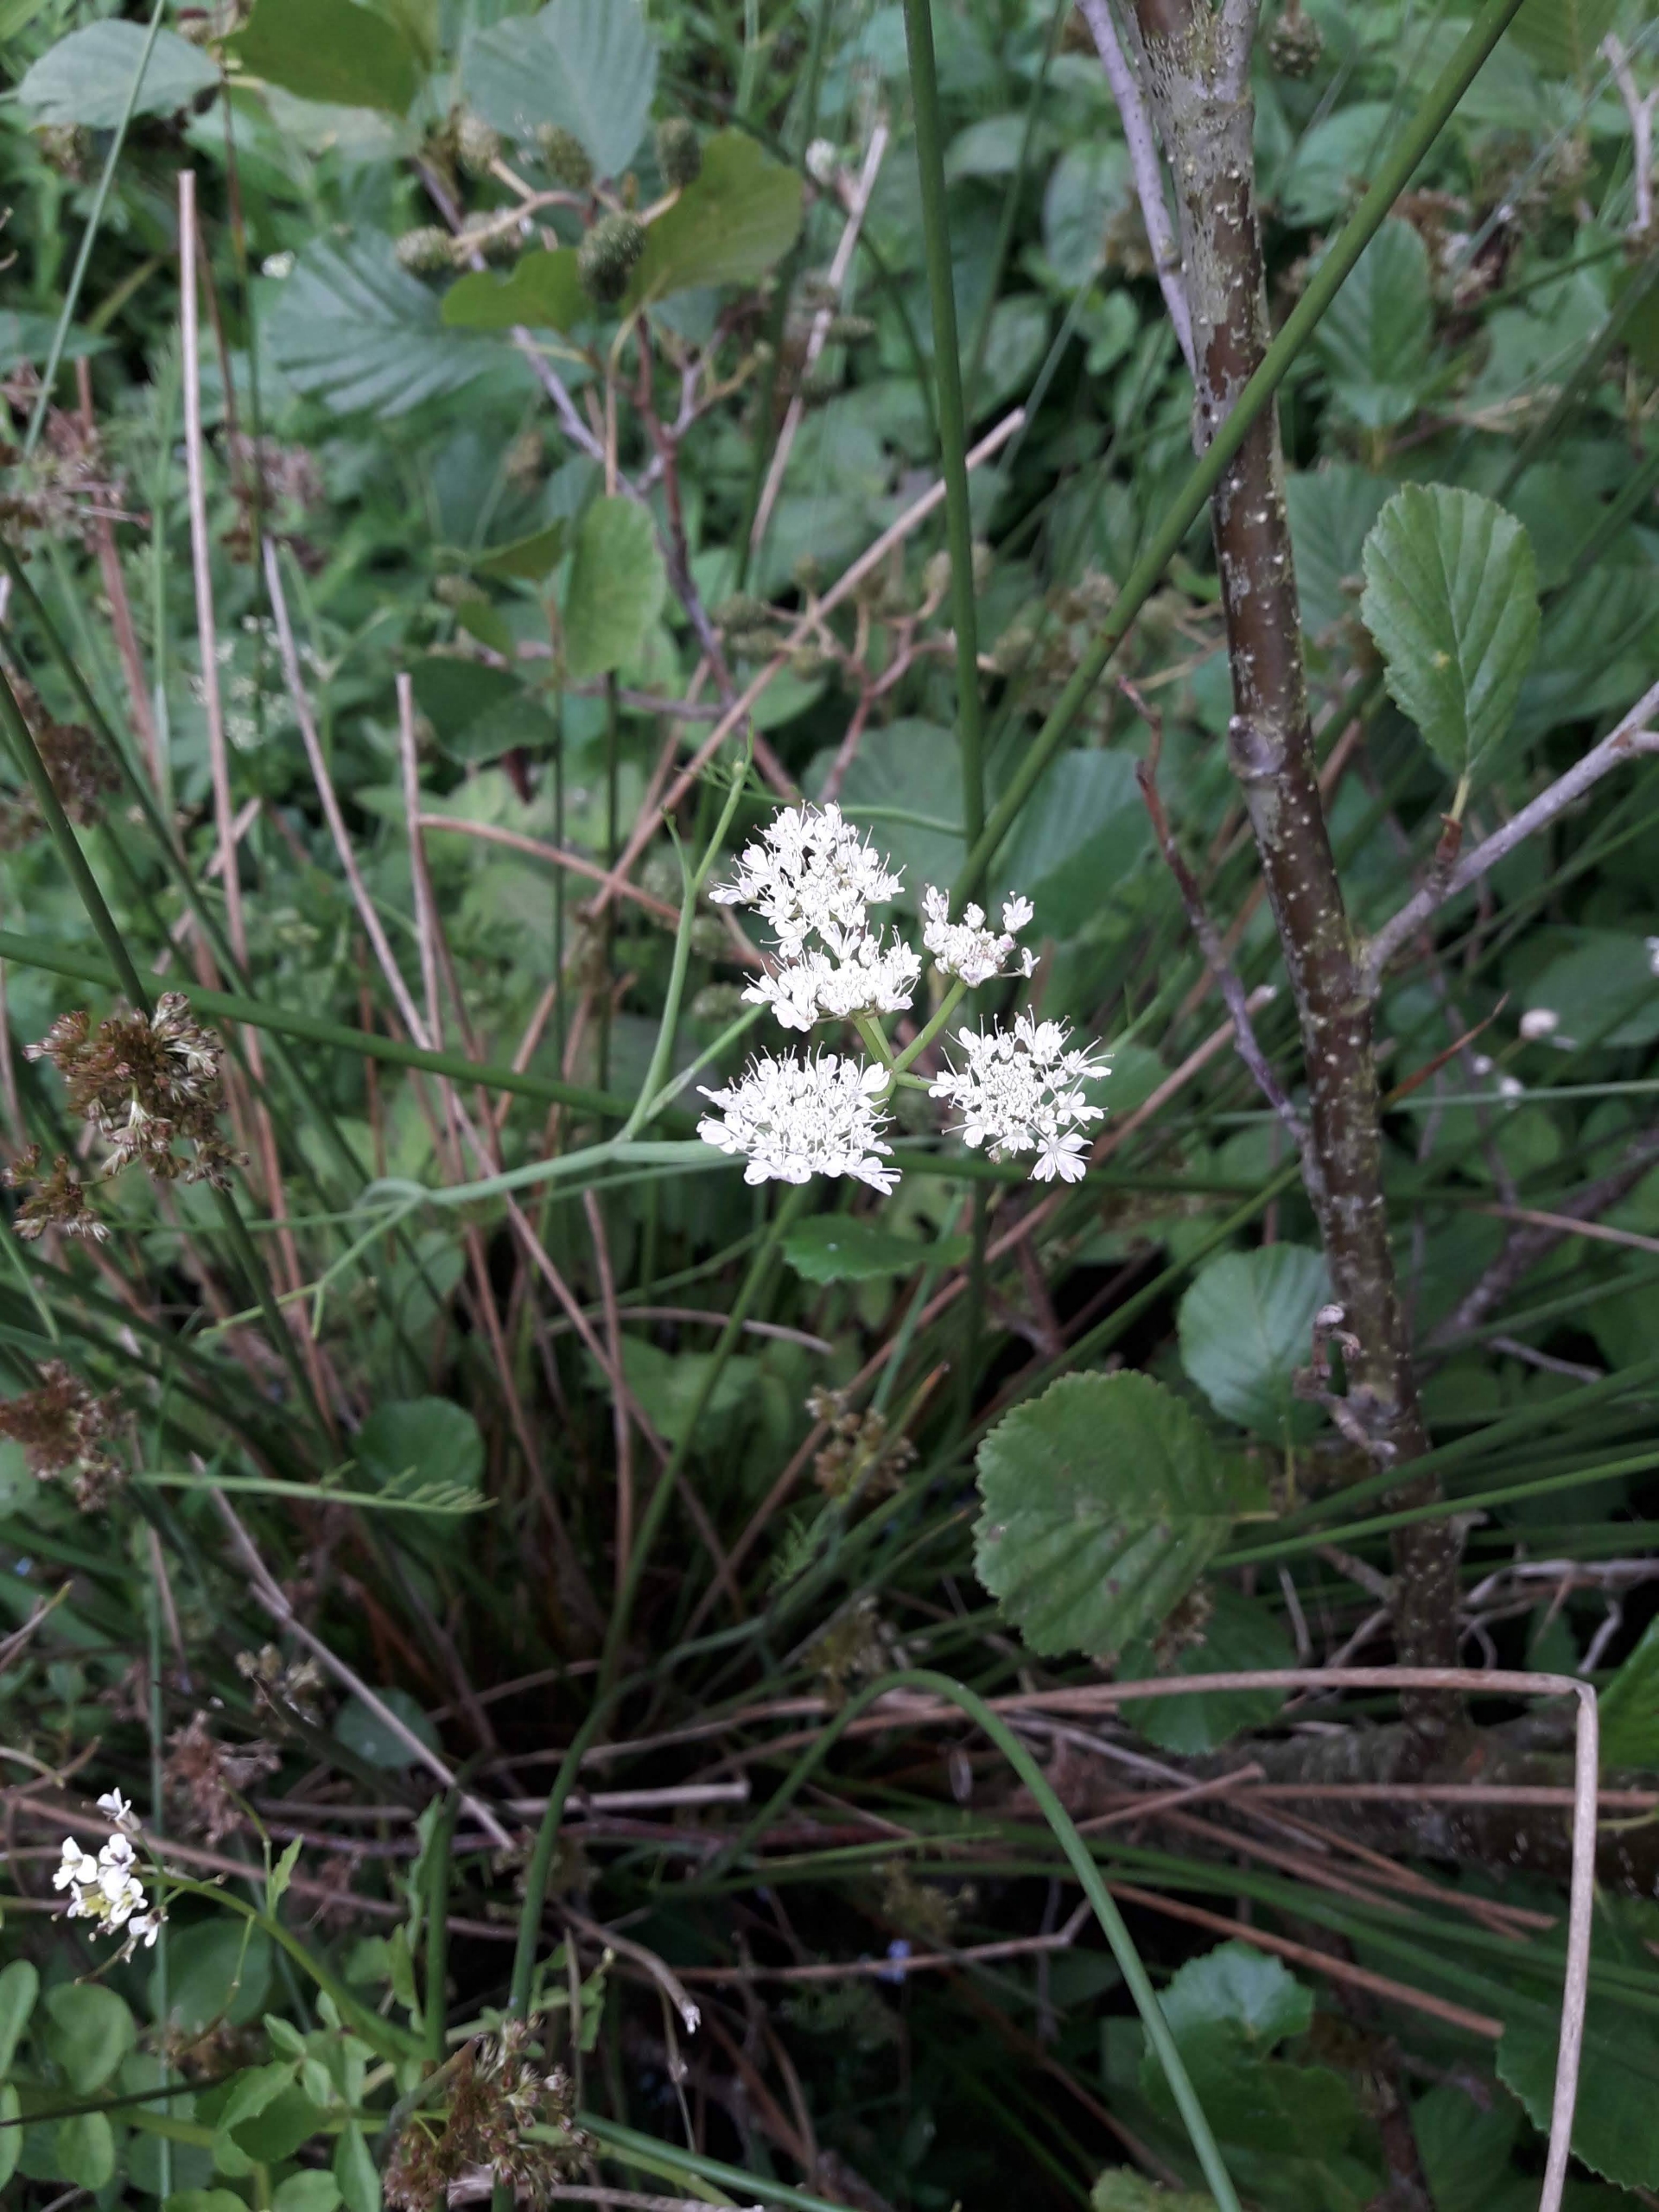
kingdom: Plantae
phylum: Tracheophyta
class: Magnoliopsida
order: Apiales
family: Apiaceae
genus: Oenanthe
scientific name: Oenanthe fistulosa
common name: Vand-klaseskærm
